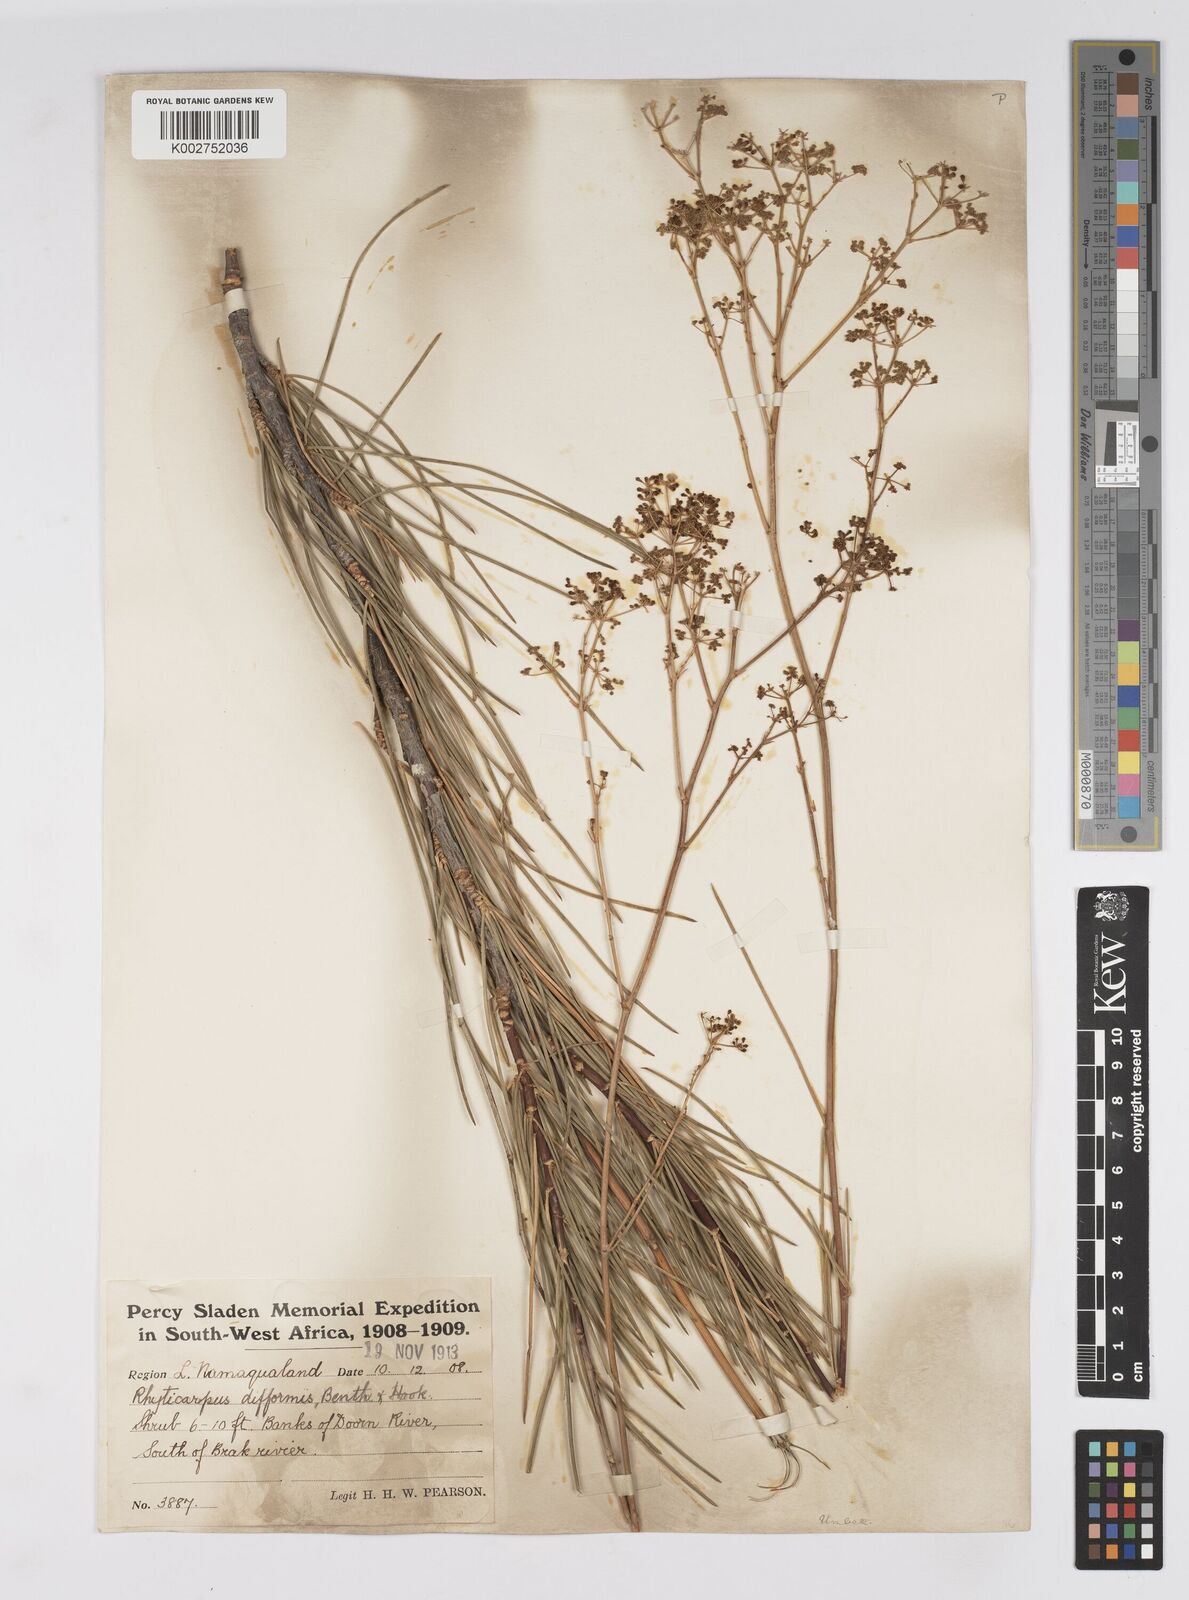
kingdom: Plantae
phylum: Tracheophyta
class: Magnoliopsida
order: Apiales
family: Apiaceae
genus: Anginon
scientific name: Anginon difforme
